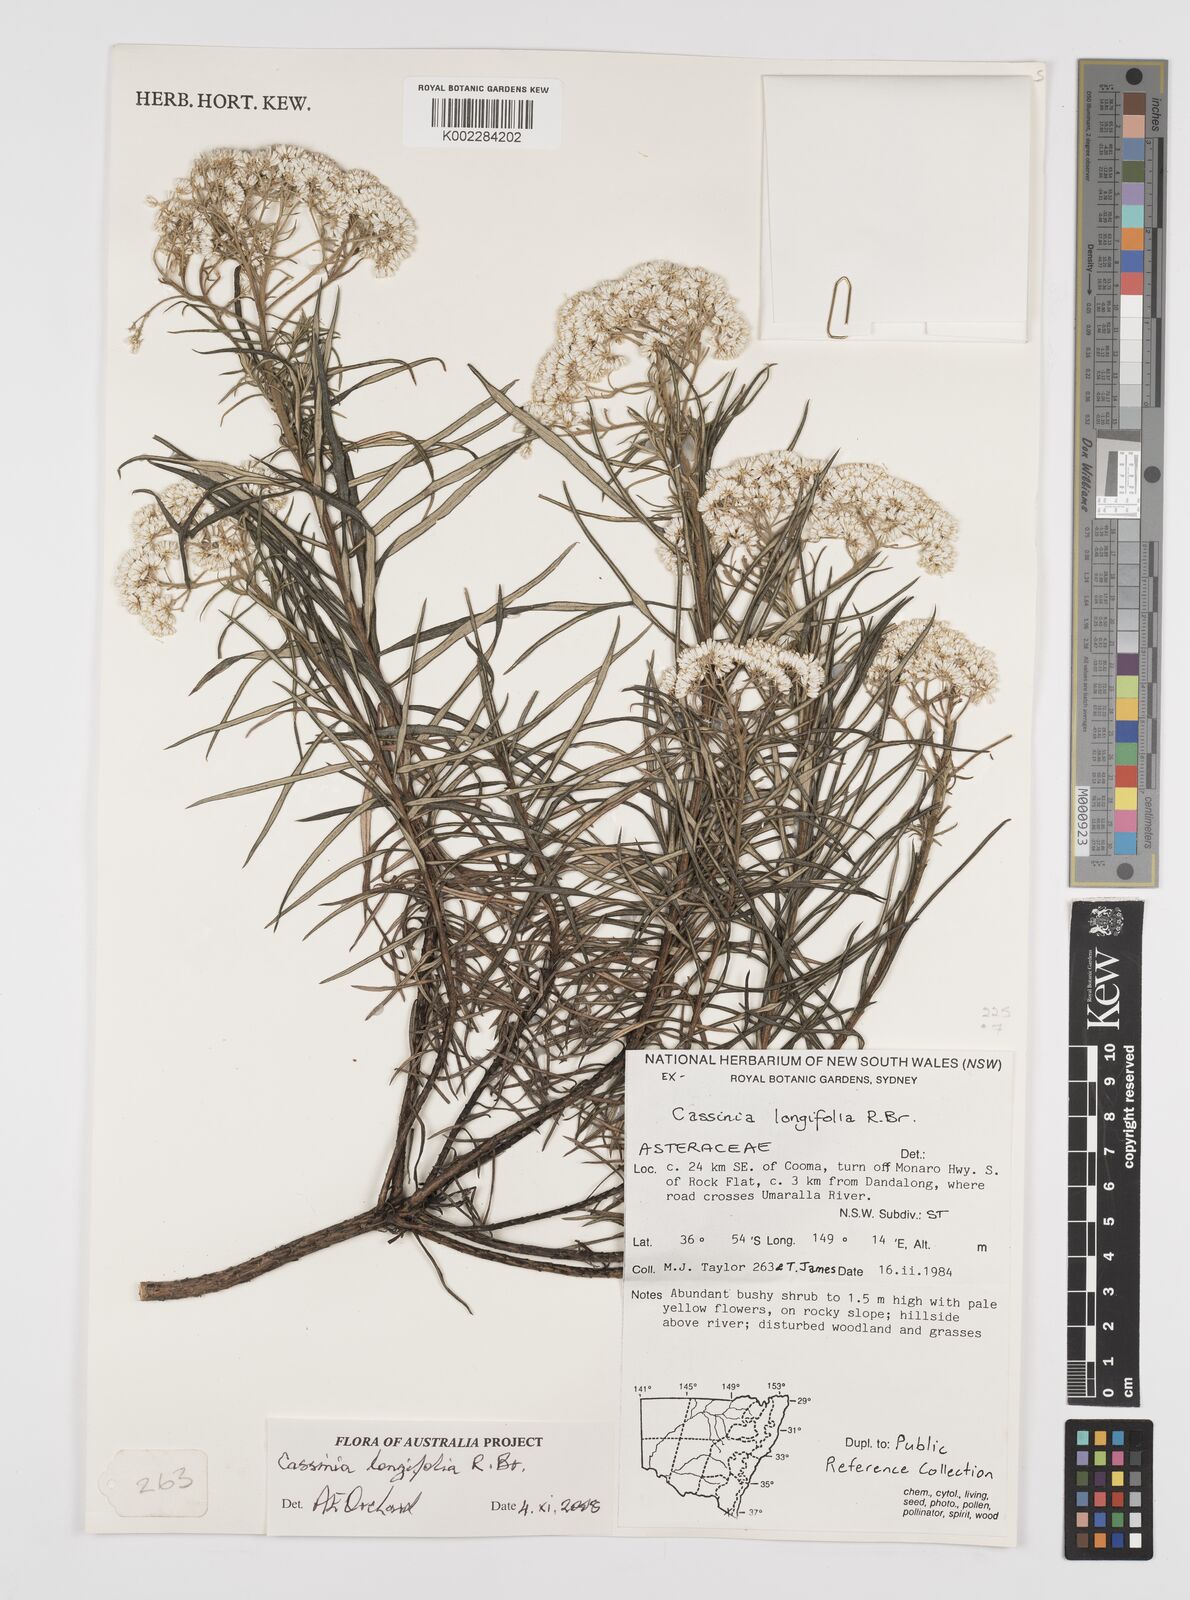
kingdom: Plantae
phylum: Tracheophyta
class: Magnoliopsida
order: Asterales
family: Asteraceae
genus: Cassinia
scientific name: Cassinia longifolia
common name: Longleaf-dogwood
